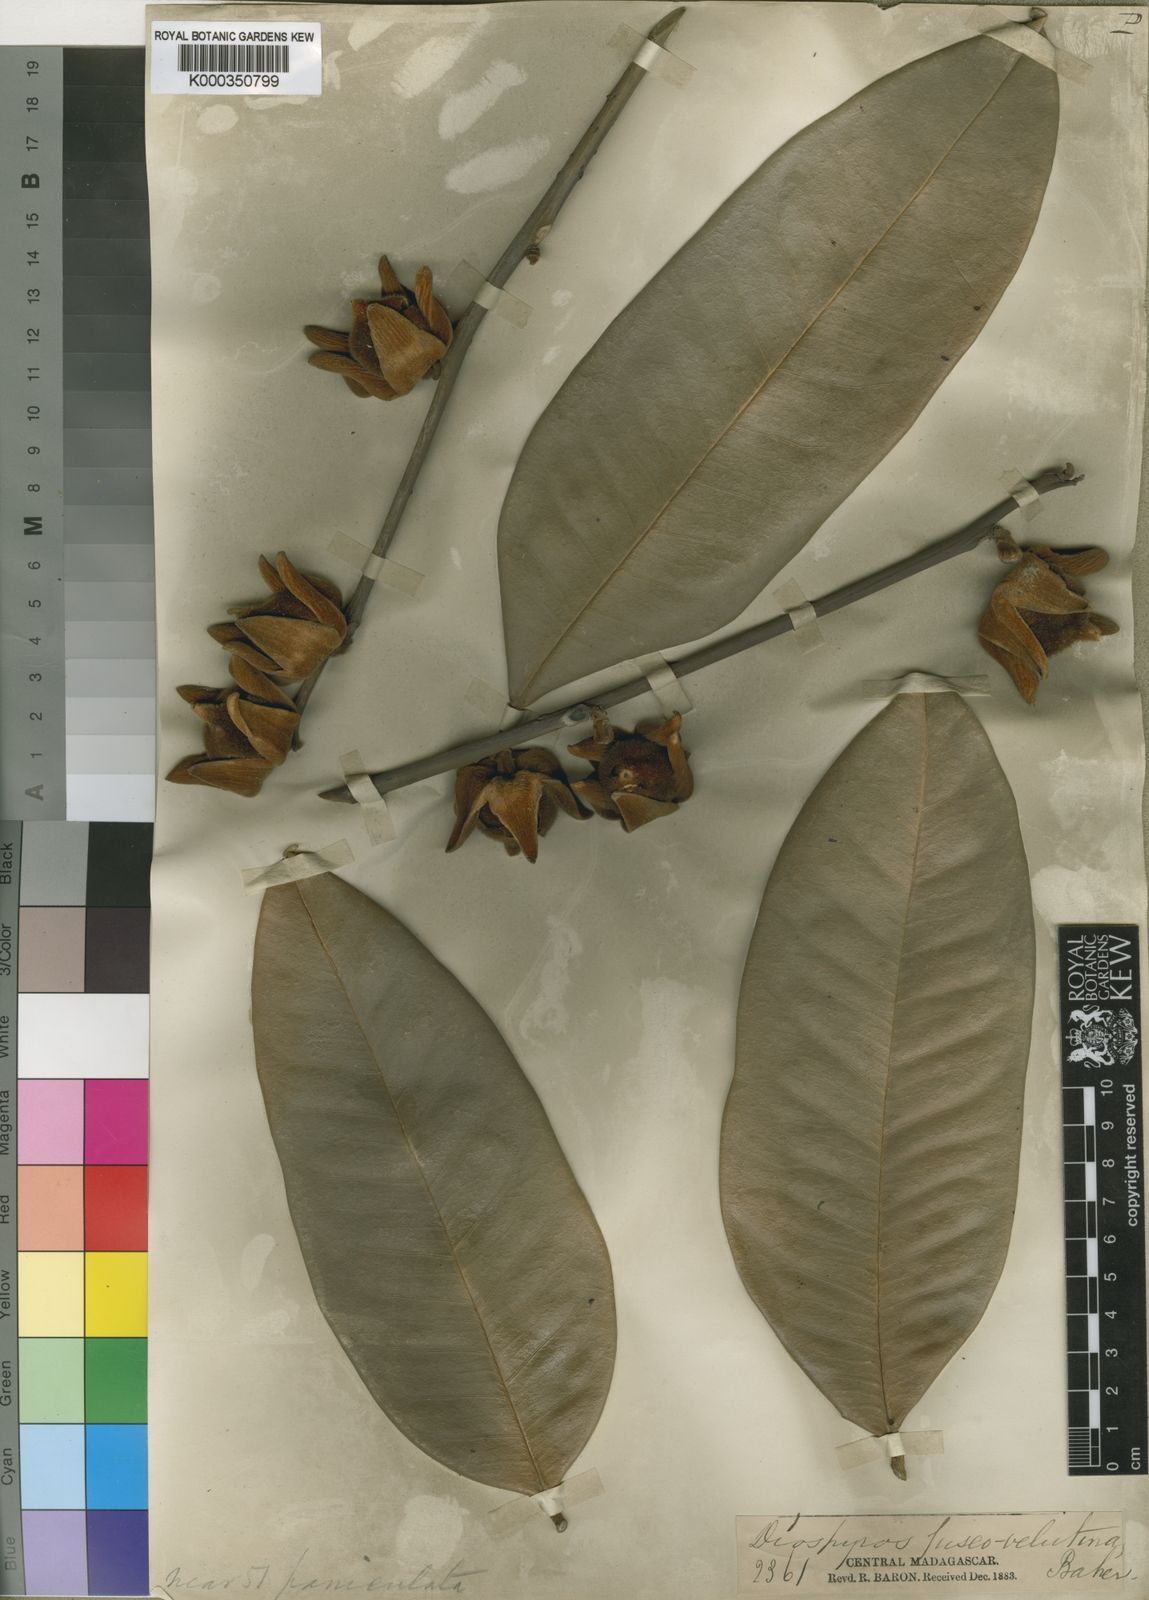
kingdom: Plantae
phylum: Tracheophyta
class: Magnoliopsida
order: Ericales
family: Ebenaceae
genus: Diospyros
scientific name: Diospyros fuscovelutina
